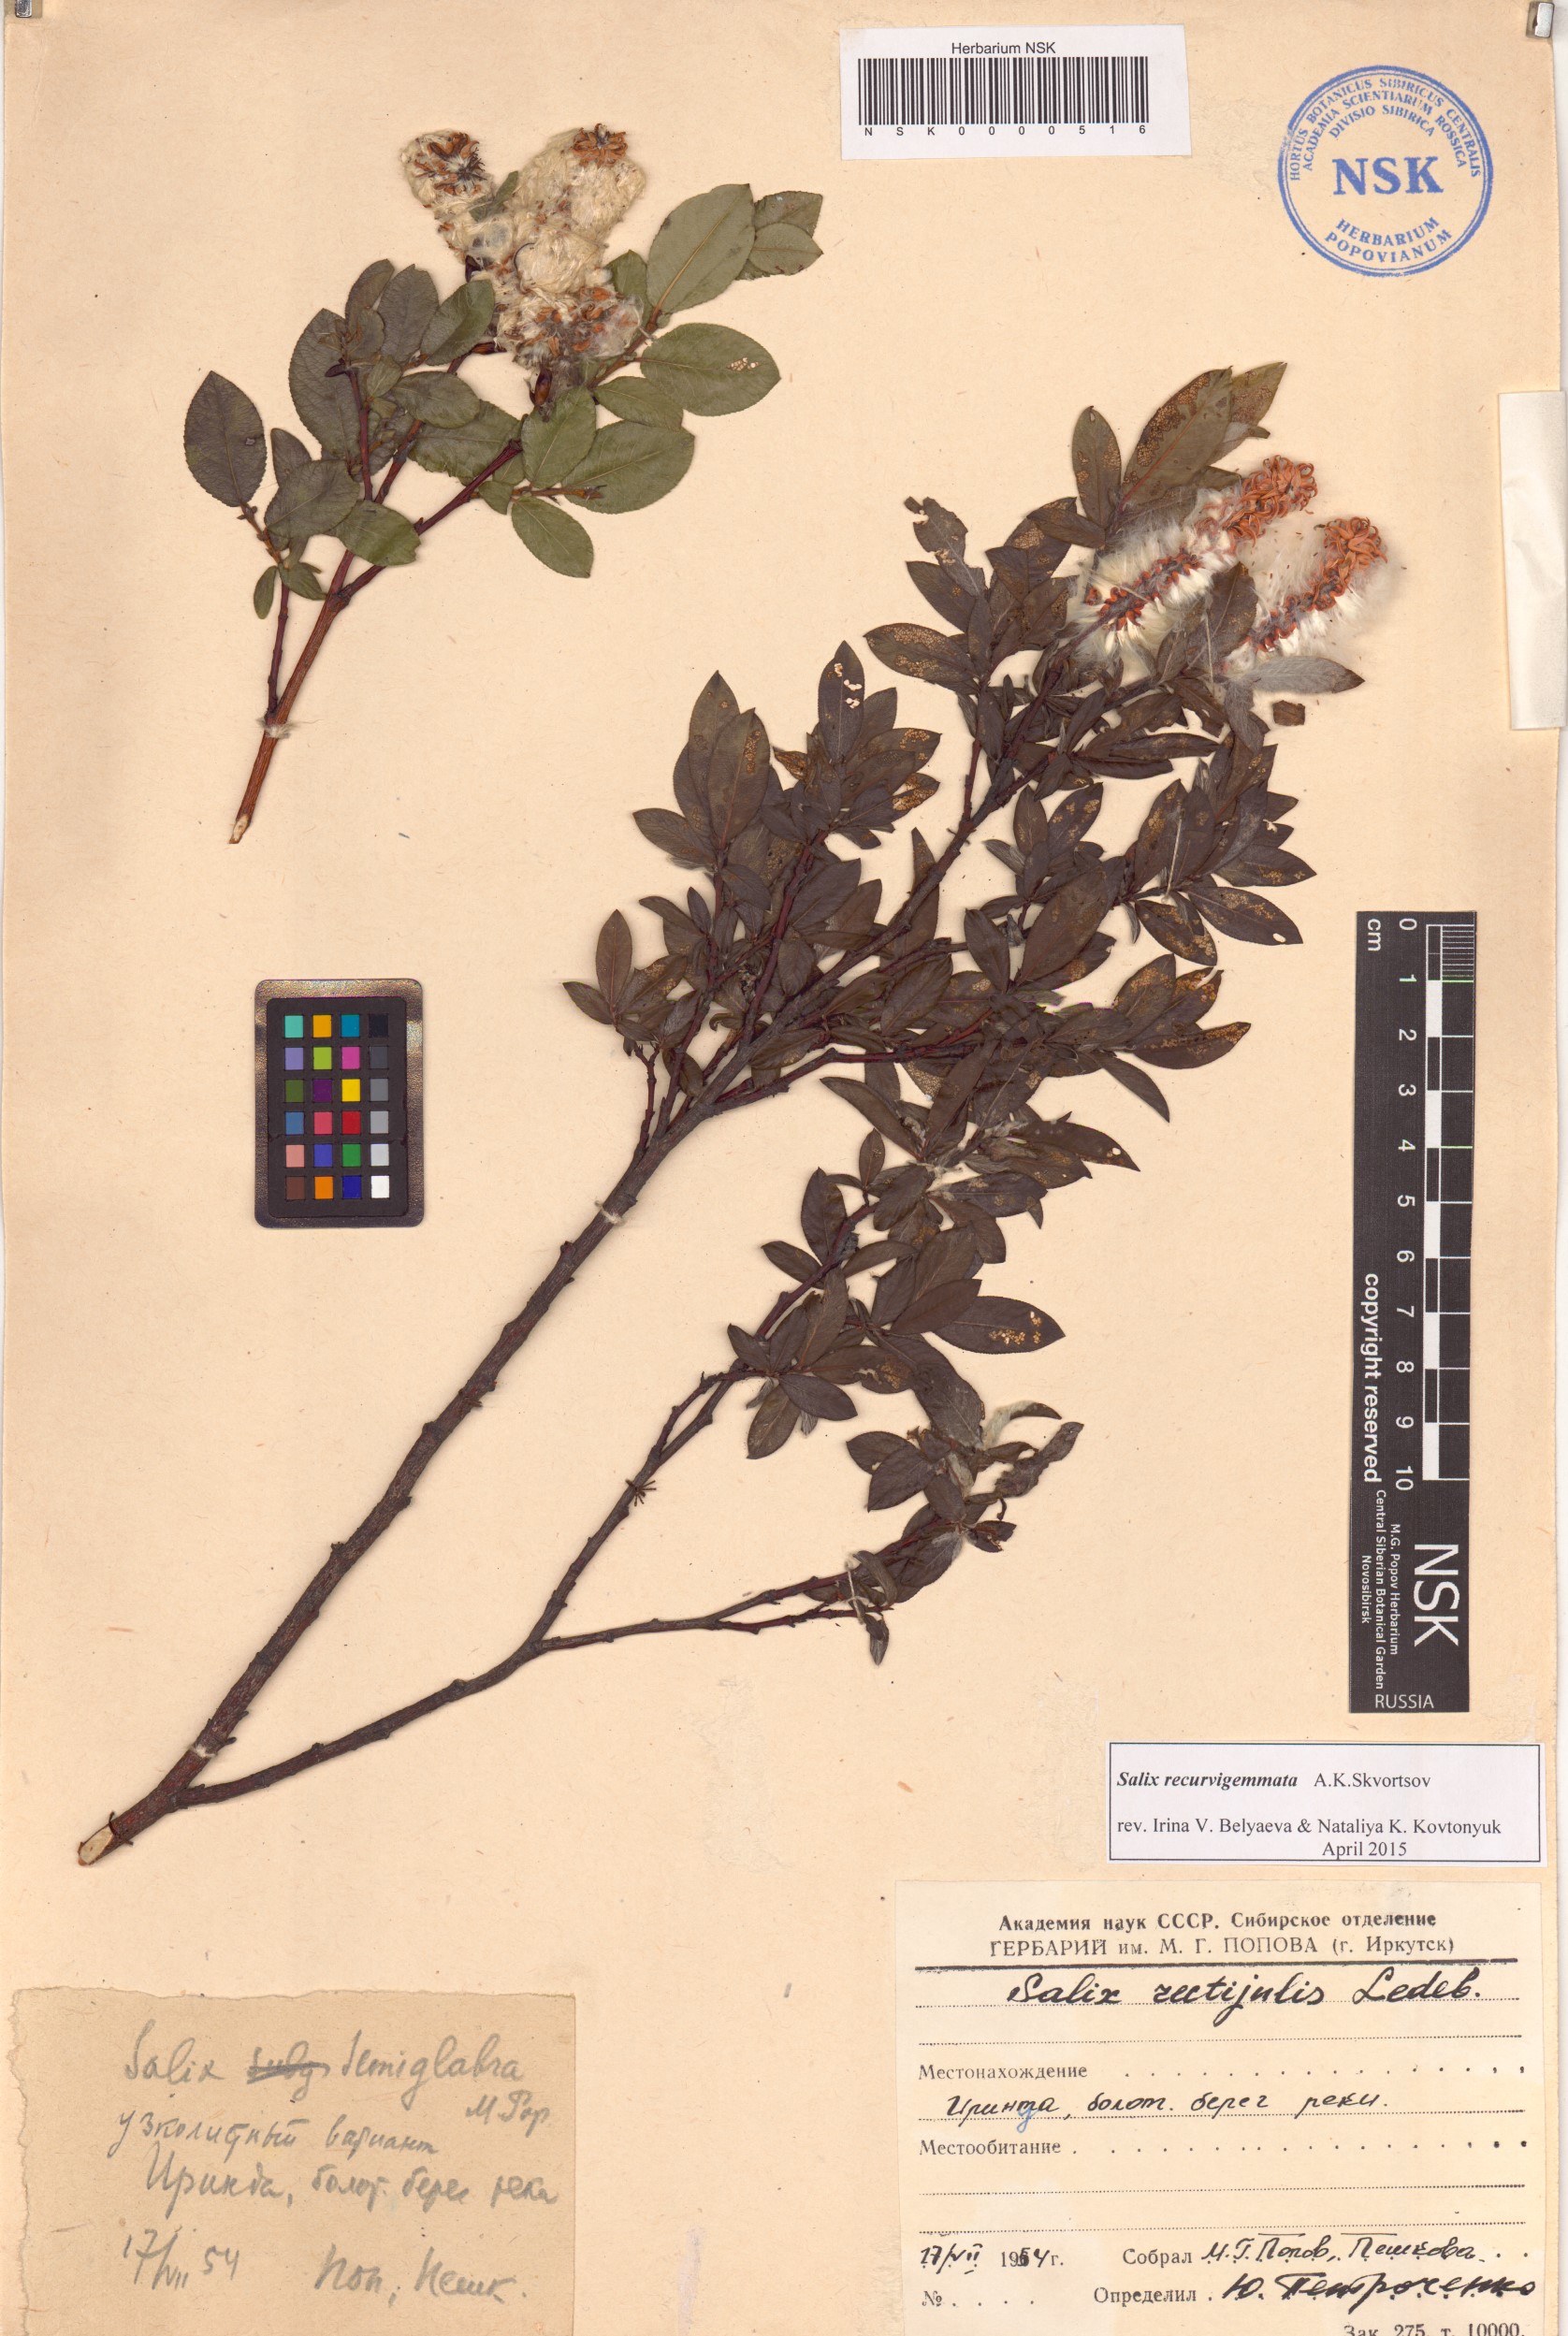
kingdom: Plantae
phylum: Tracheophyta
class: Magnoliopsida
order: Malpighiales
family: Salicaceae
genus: Salix
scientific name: Salix recurvigemmata
